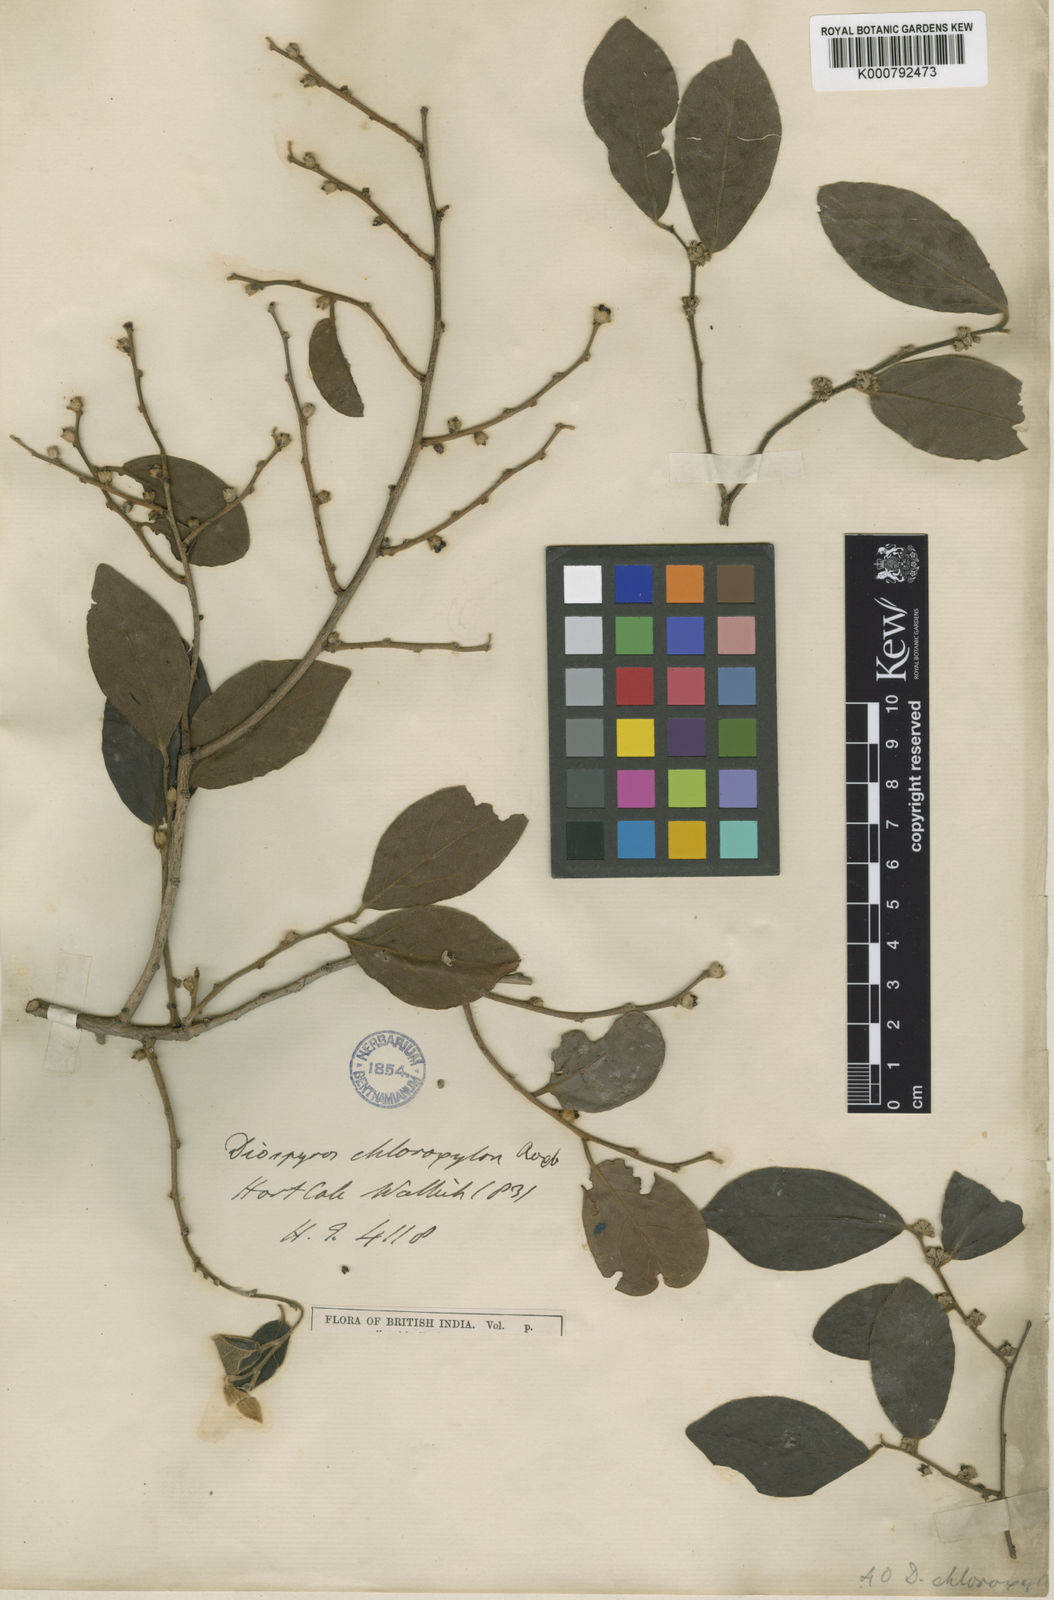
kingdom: Plantae
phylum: Tracheophyta
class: Magnoliopsida
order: Ericales
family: Ebenaceae
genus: Diospyros
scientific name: Diospyros chloroxylon
